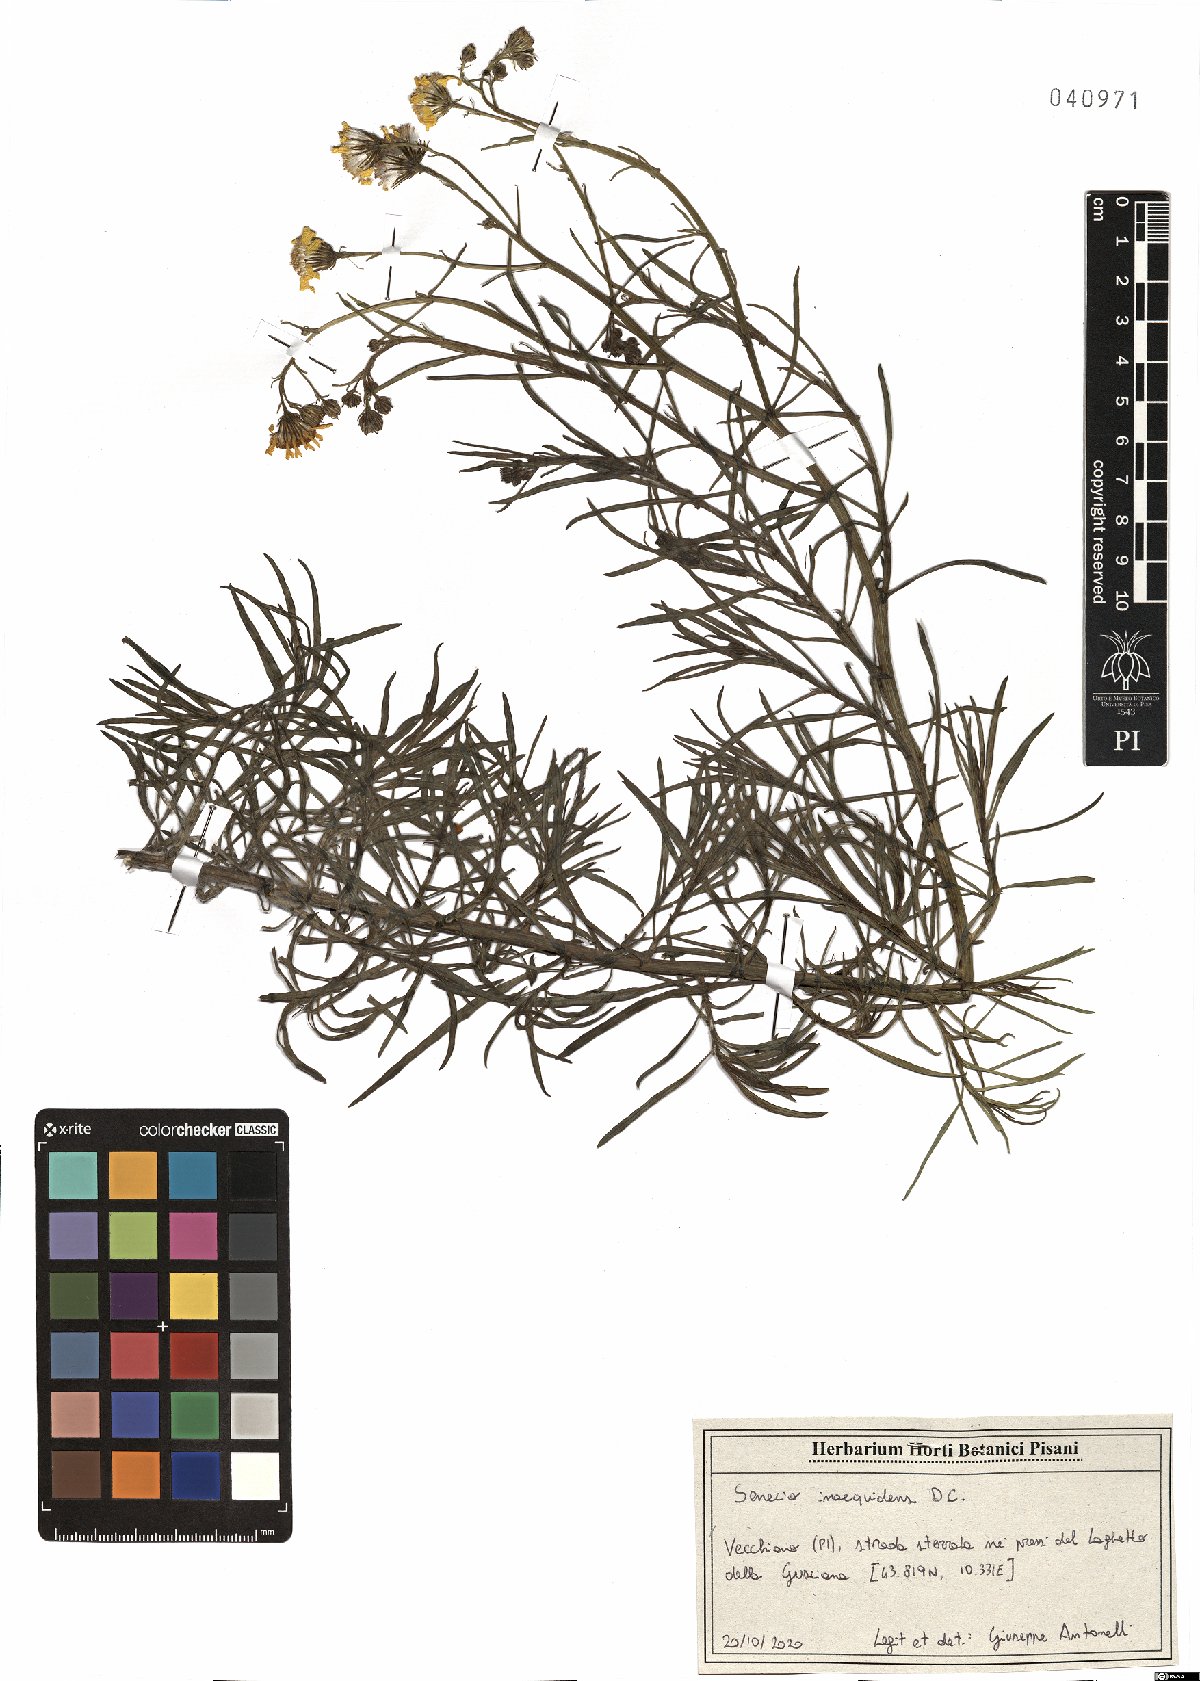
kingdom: Plantae
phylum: Tracheophyta
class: Magnoliopsida
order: Asterales
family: Asteraceae
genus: Senecio
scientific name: Senecio inaequidens
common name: Narrow-leaved ragwort
